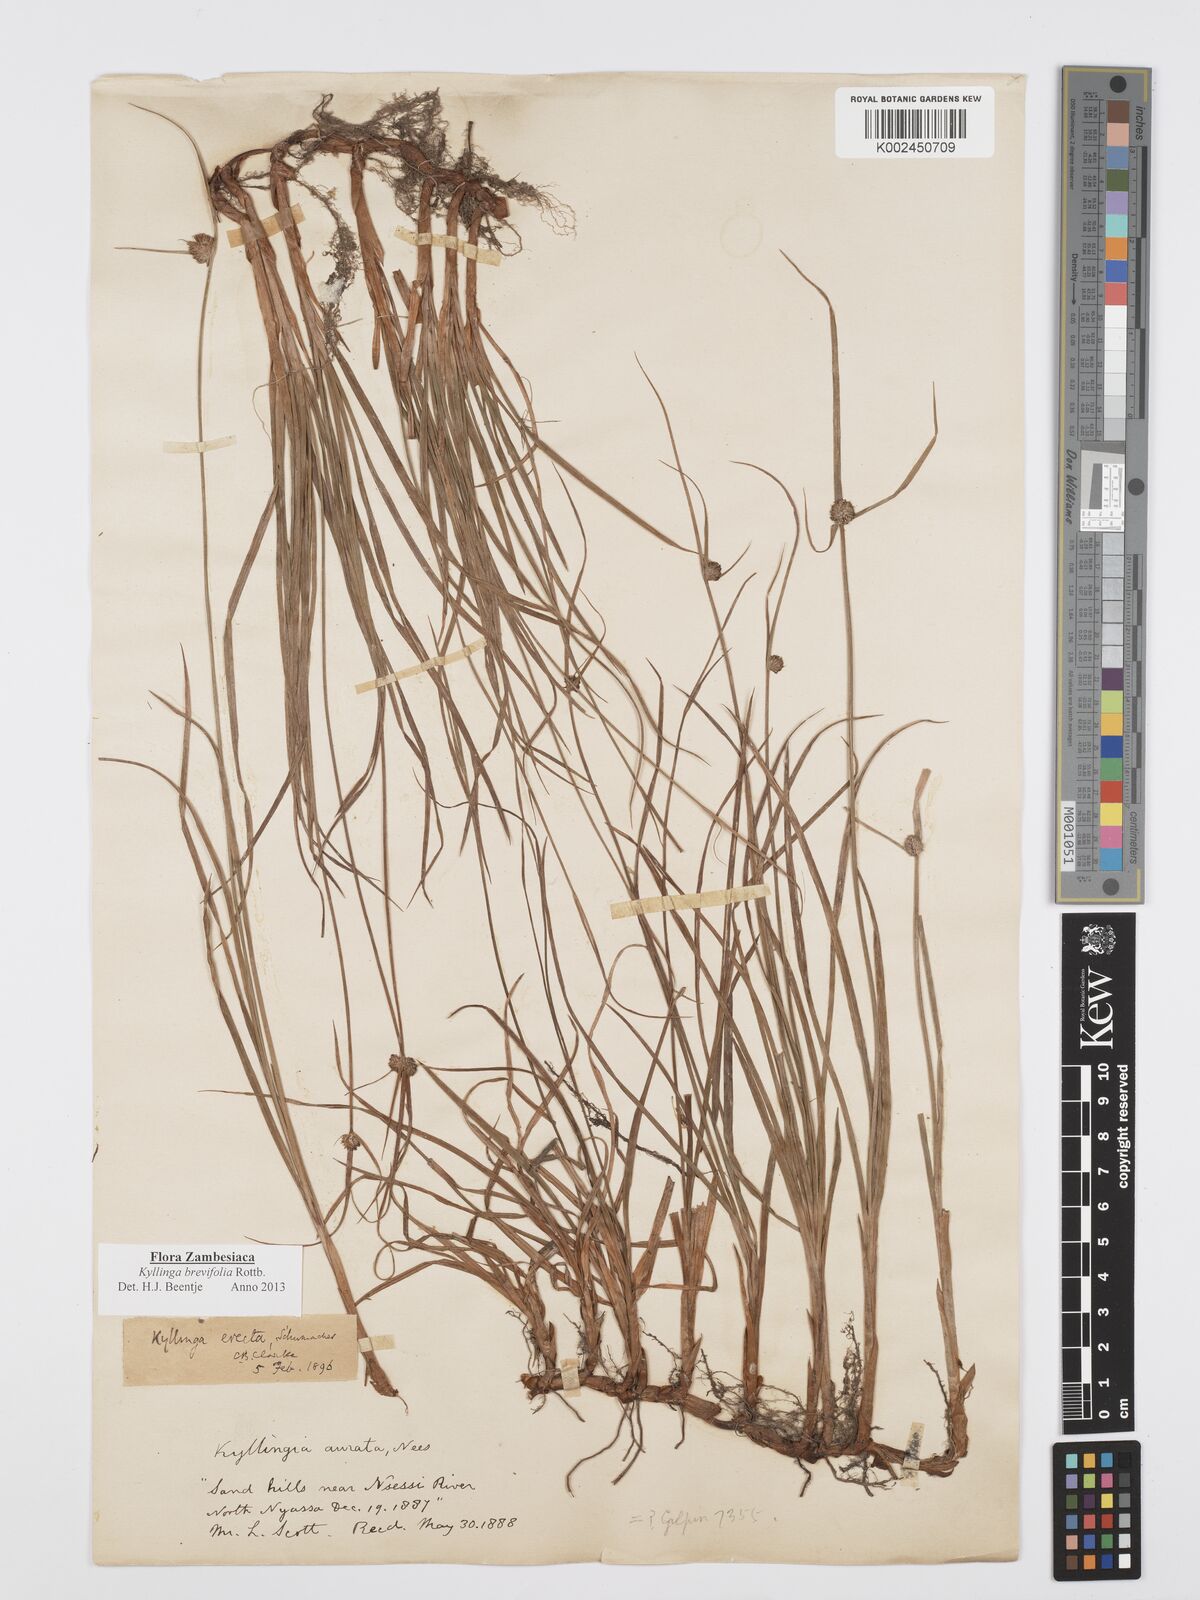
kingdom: Plantae
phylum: Tracheophyta
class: Liliopsida
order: Poales
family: Cyperaceae
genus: Cyperus
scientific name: Cyperus brevifolius
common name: Globe kyllinga
